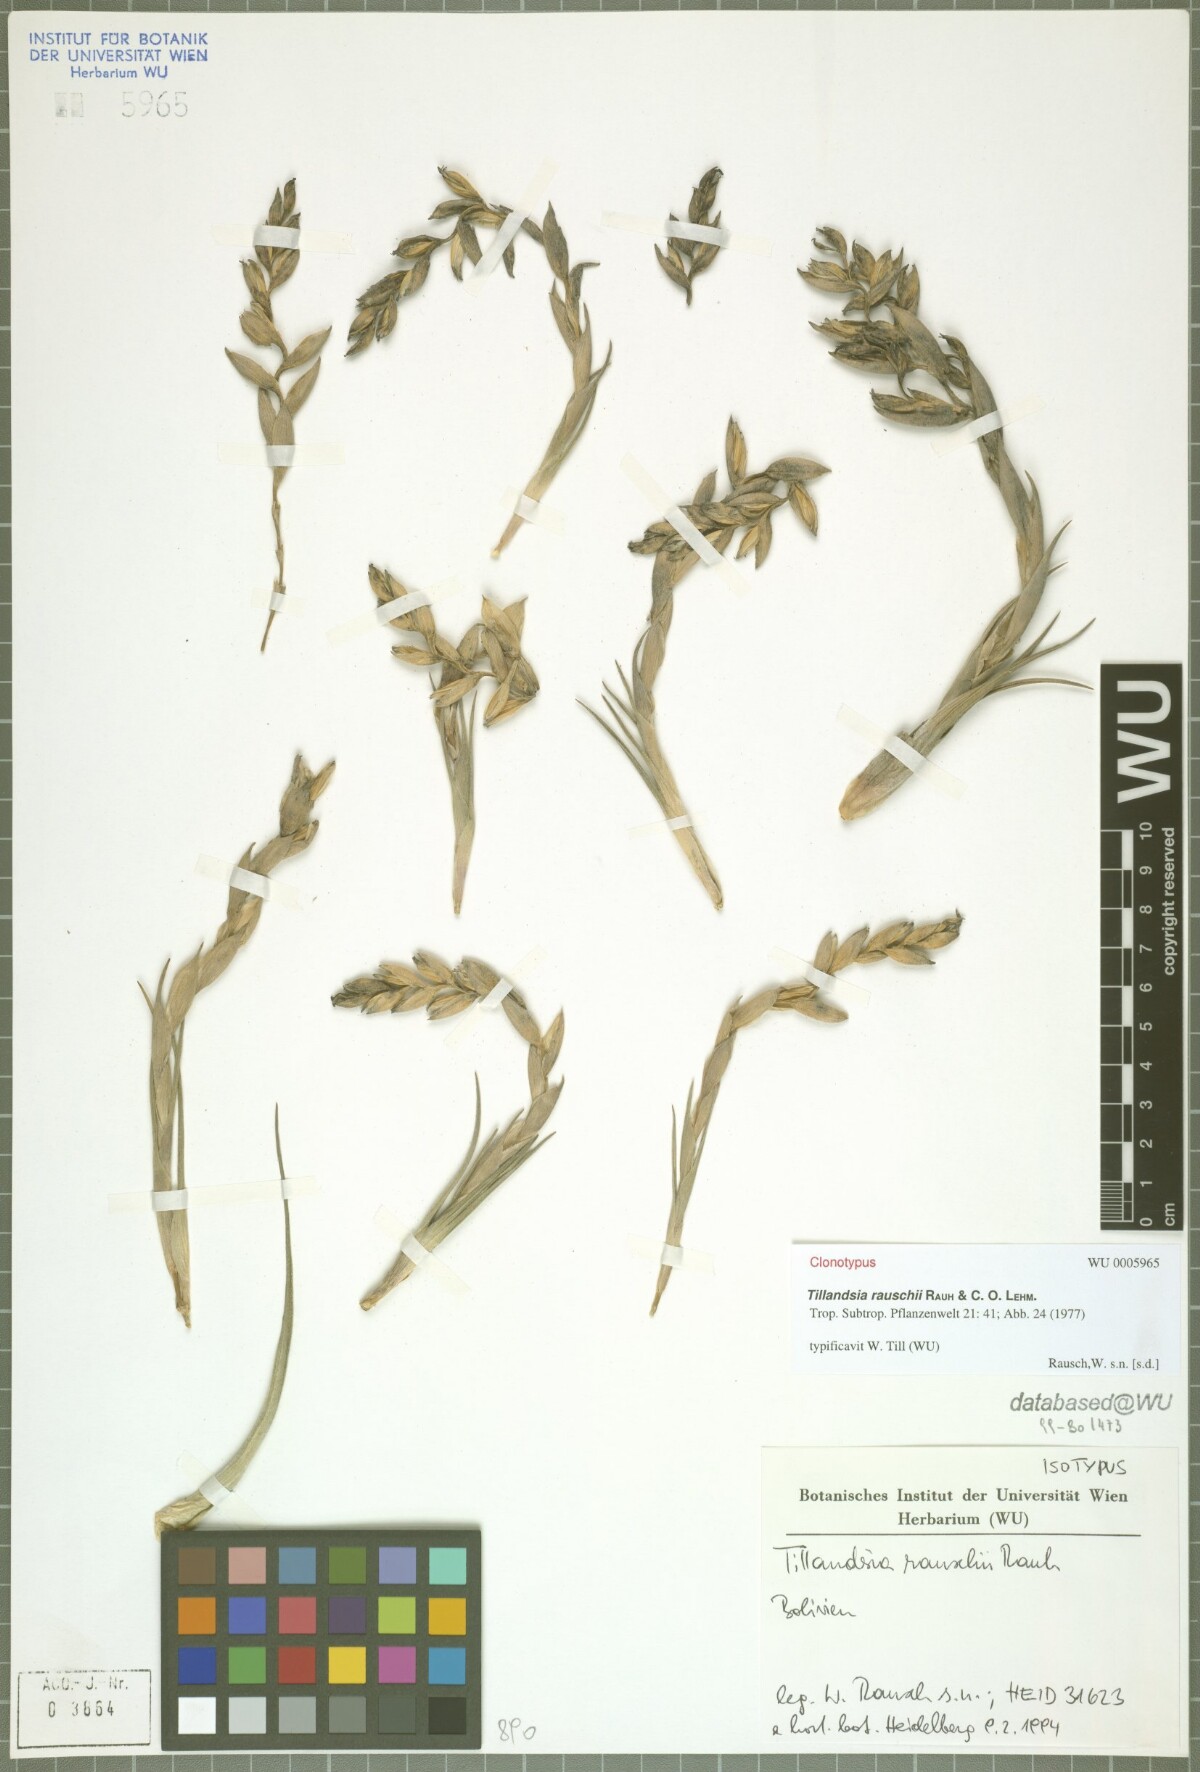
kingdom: Plantae
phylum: Tracheophyta
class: Liliopsida
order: Poales
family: Bromeliaceae
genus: Tillandsia
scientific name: Tillandsia rauschii
